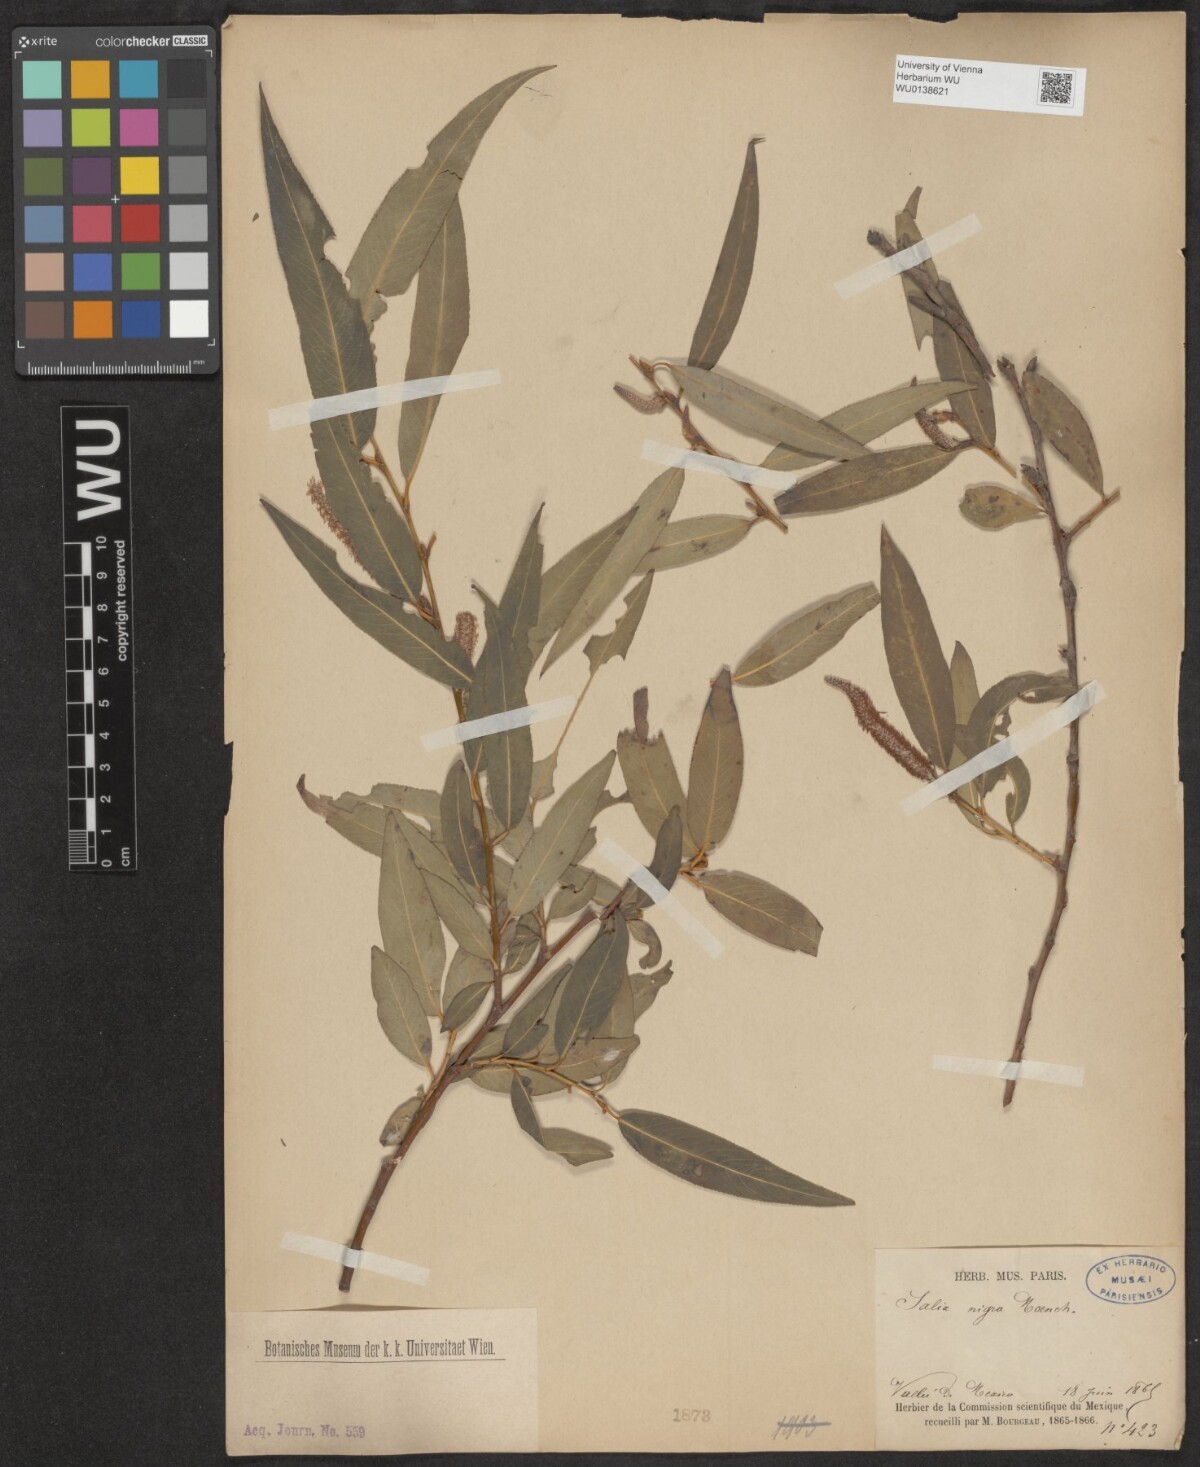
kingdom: Plantae
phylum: Tracheophyta
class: Magnoliopsida
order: Malpighiales
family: Salicaceae
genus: Salix
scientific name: Salix nigra
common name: Black willow
